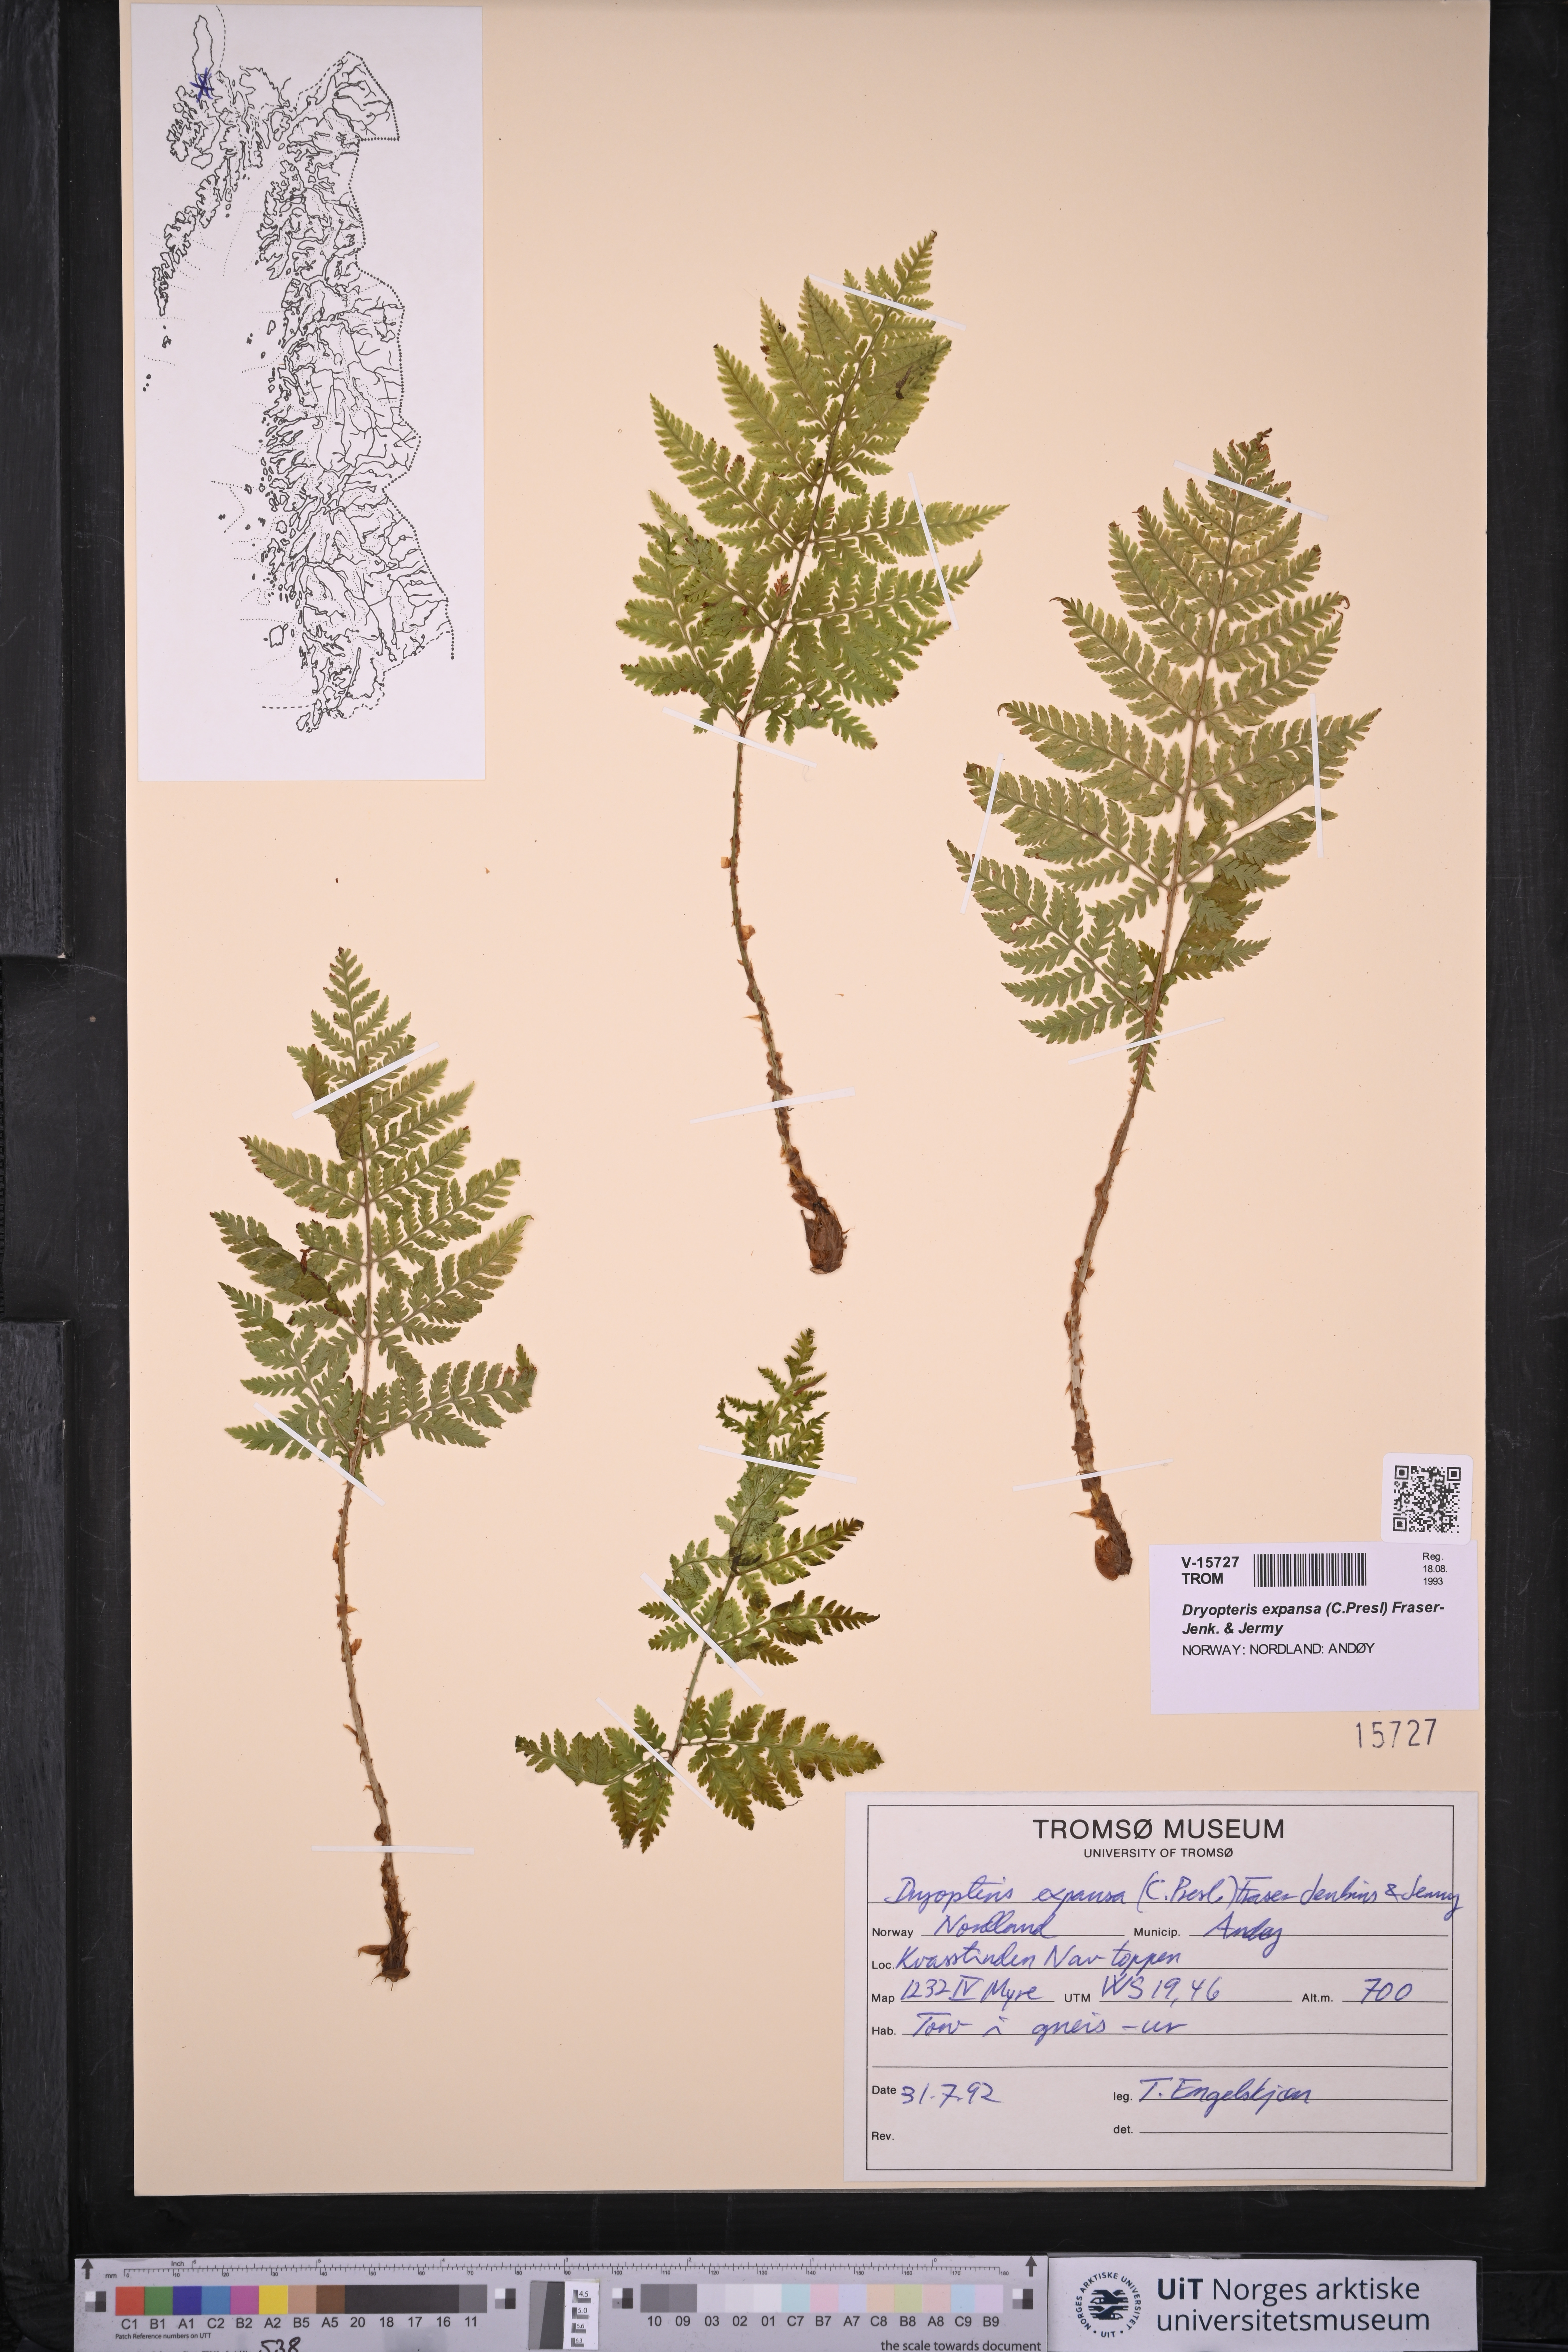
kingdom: Plantae
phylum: Tracheophyta
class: Polypodiopsida
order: Polypodiales
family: Dryopteridaceae
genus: Dryopteris
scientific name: Dryopteris expansa
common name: Northern buckler fern
